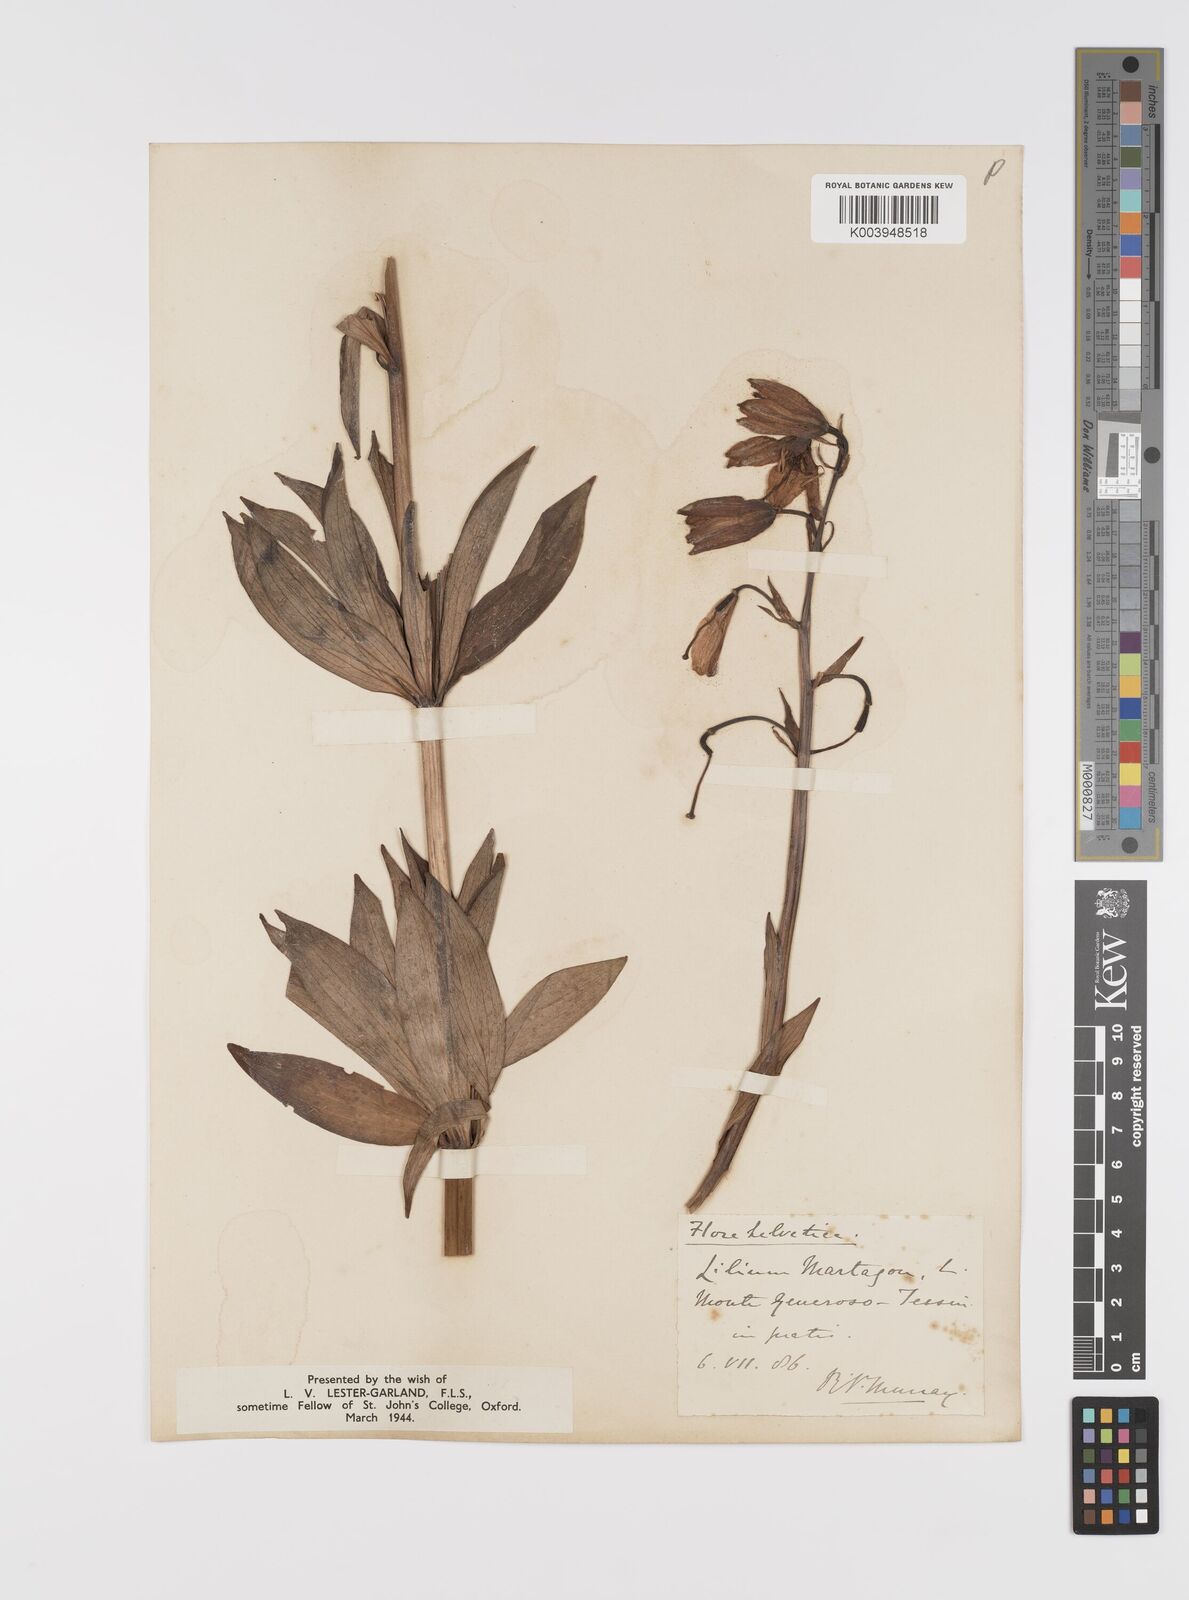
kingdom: Plantae
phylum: Tracheophyta
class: Liliopsida
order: Liliales
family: Liliaceae
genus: Lilium
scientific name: Lilium martagon
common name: Martagon lily
